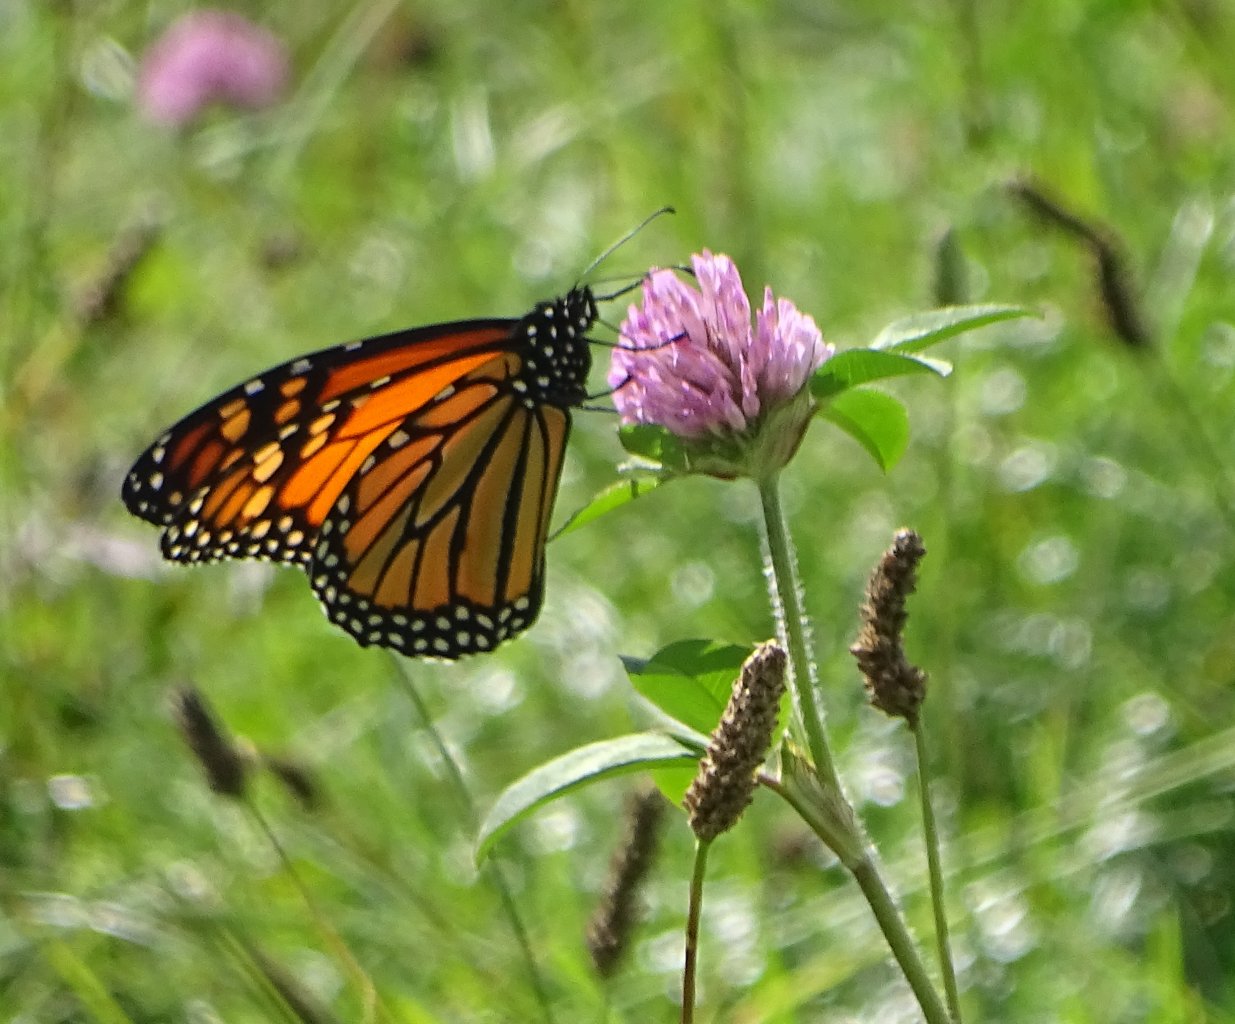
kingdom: Animalia
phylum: Arthropoda
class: Insecta
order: Lepidoptera
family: Nymphalidae
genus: Danaus
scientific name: Danaus plexippus
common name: Monarch
